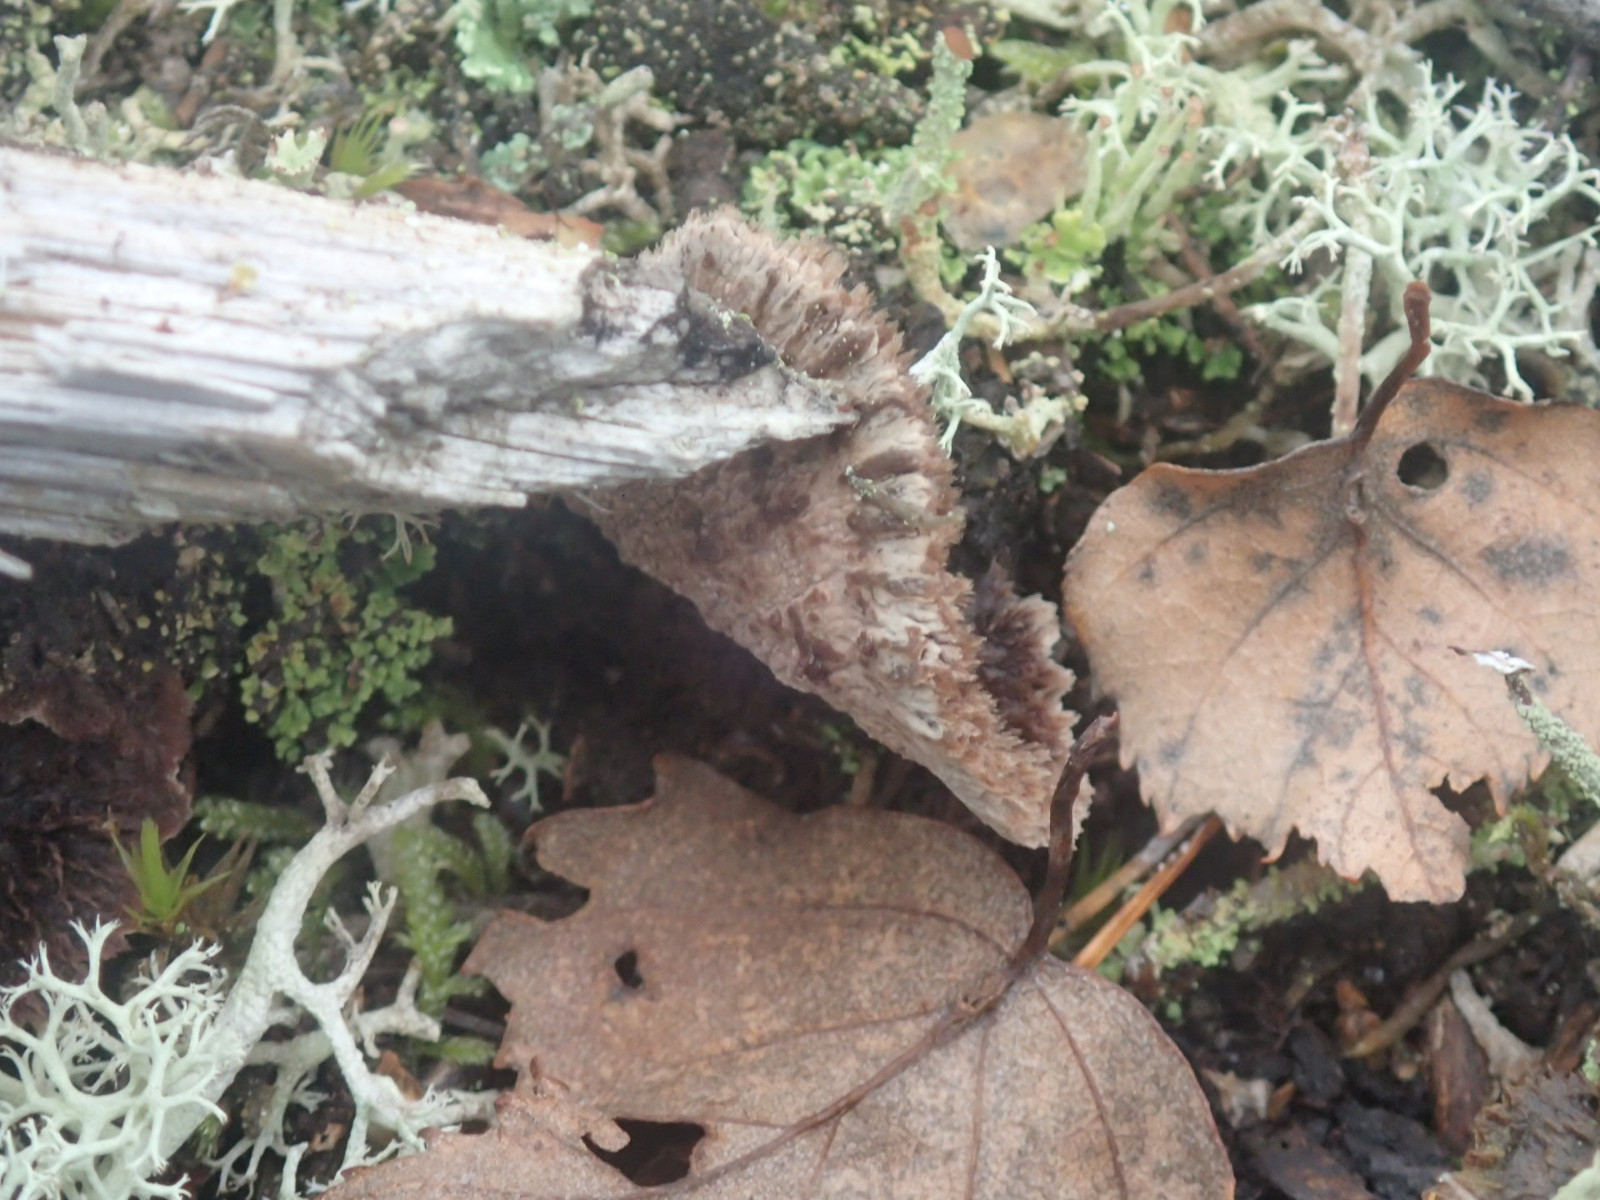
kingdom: Fungi
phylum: Basidiomycota
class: Agaricomycetes
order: Thelephorales
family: Thelephoraceae
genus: Thelephora
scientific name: Thelephora terrestris
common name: fliget frynsesvamp
